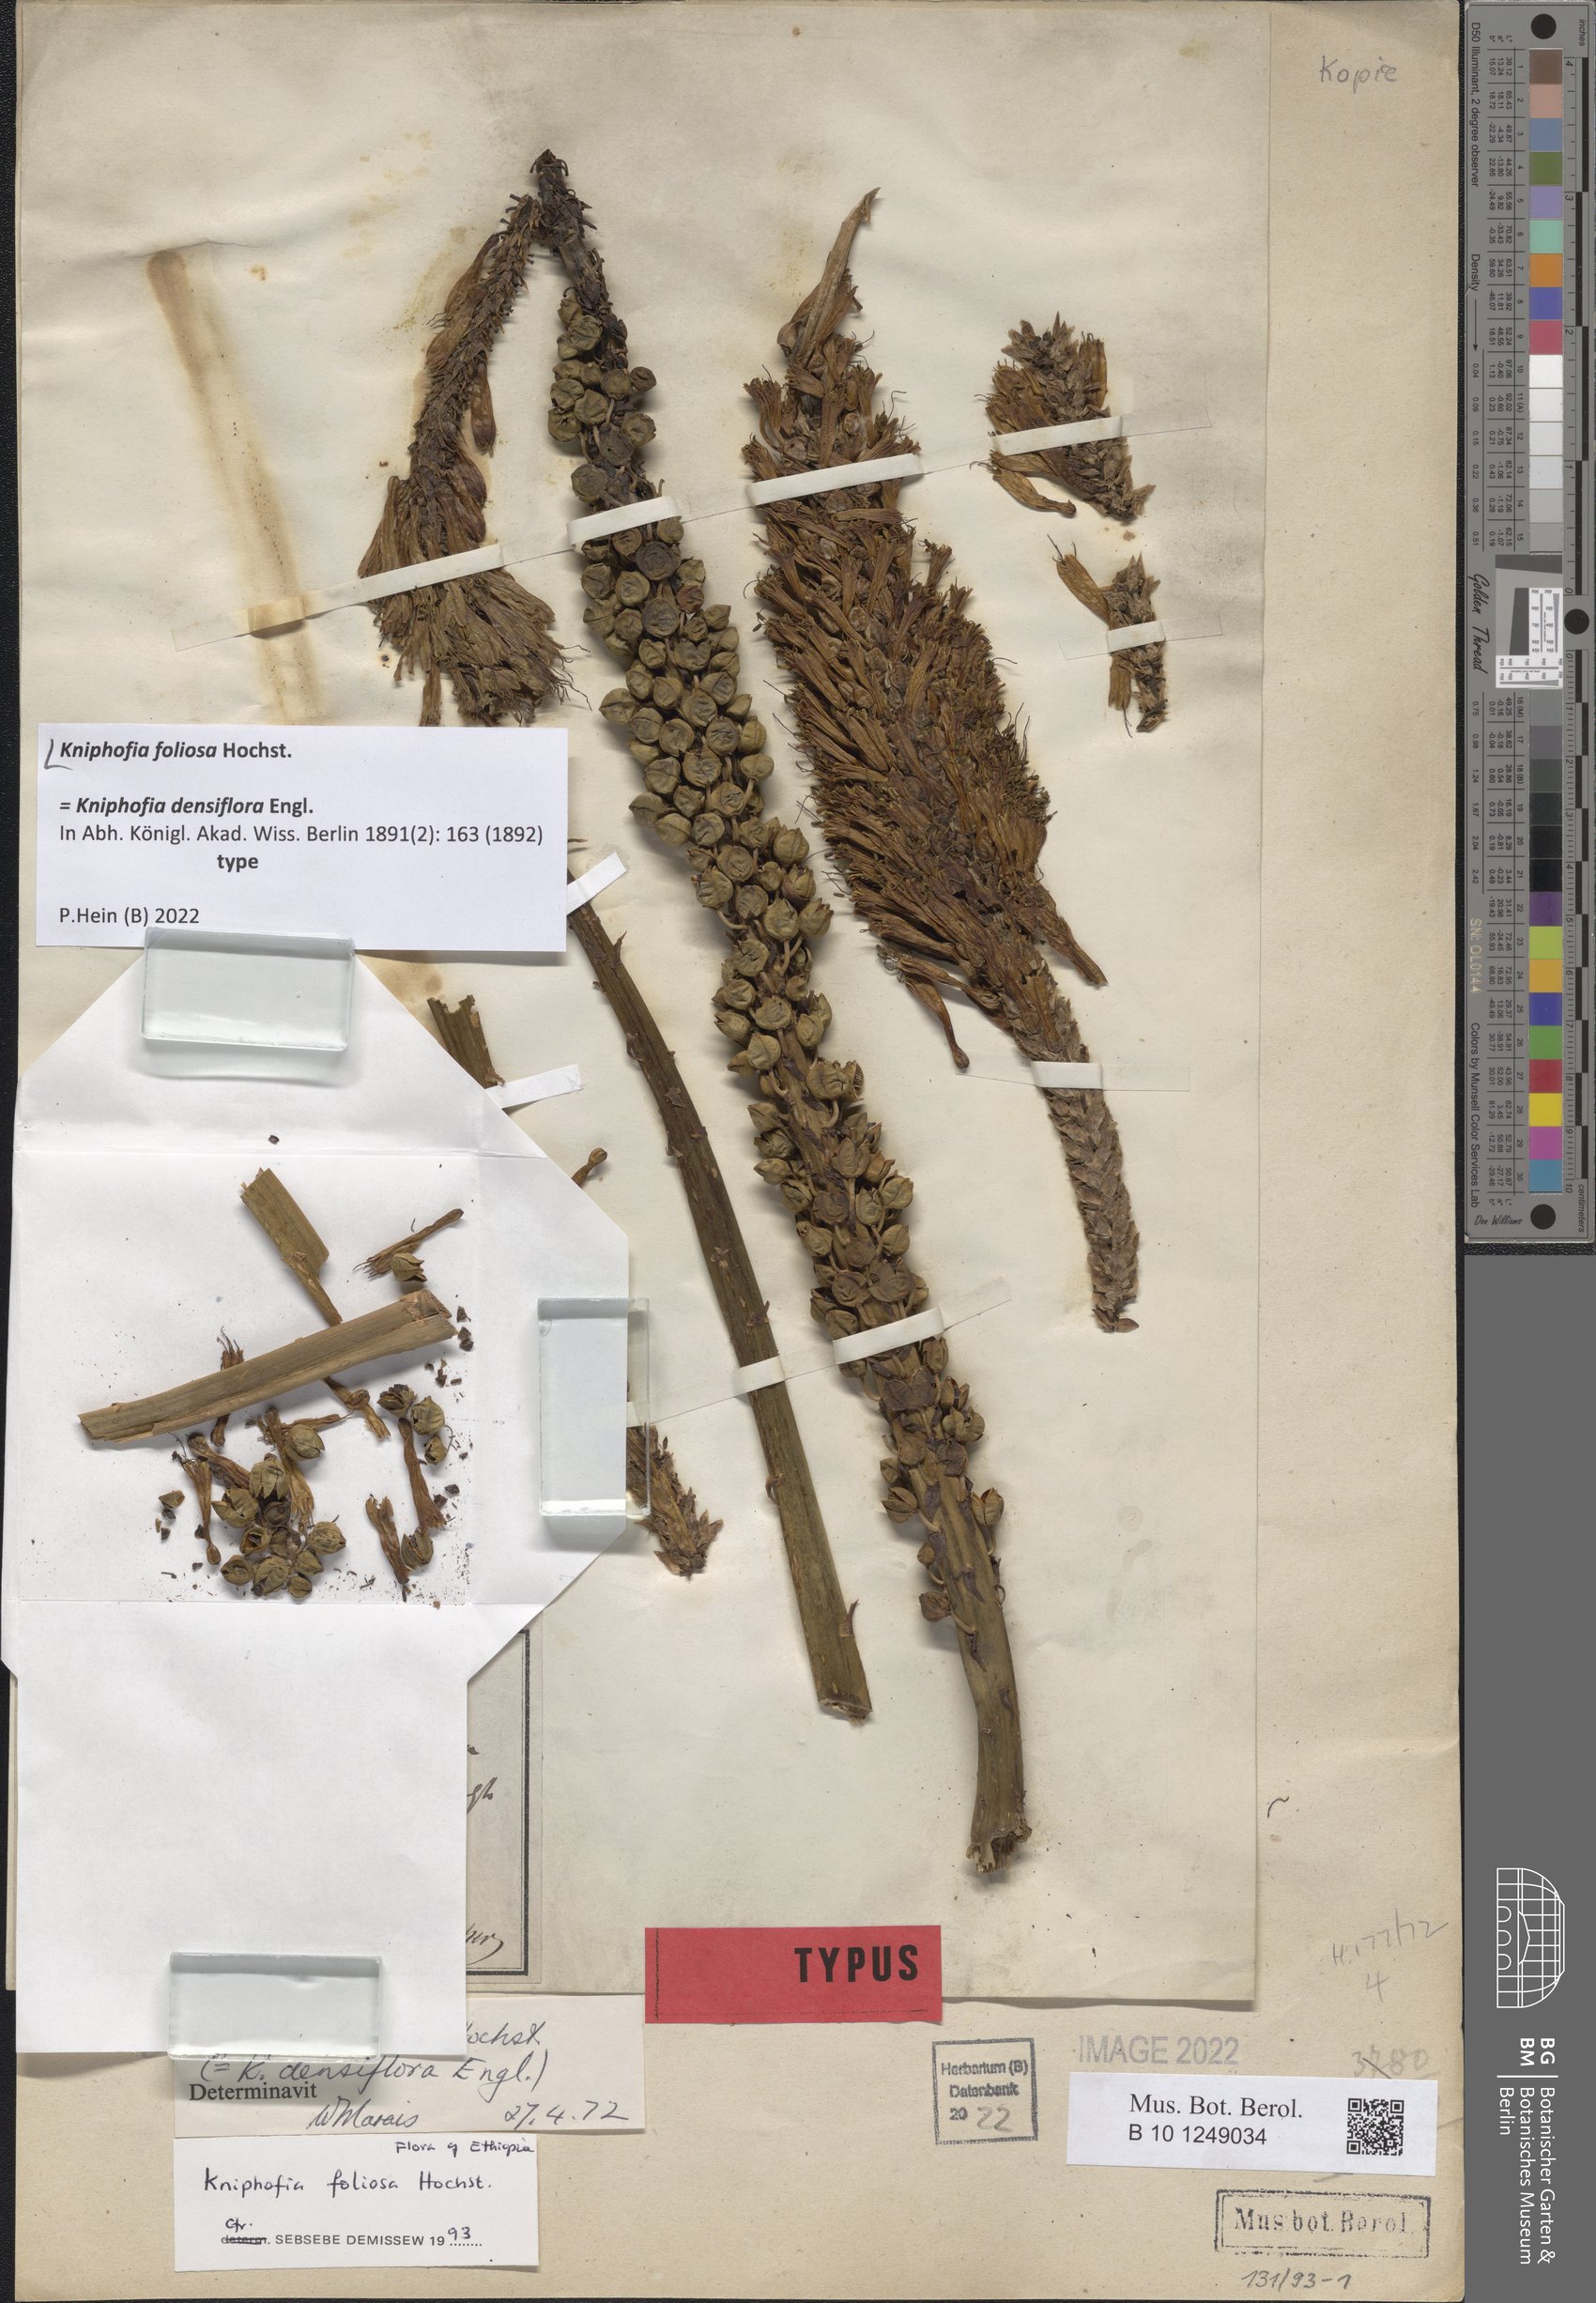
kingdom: Plantae
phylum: Tracheophyta
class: Liliopsida
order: Asparagales
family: Asphodelaceae
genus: Kniphofia
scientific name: Kniphofia foliosa
